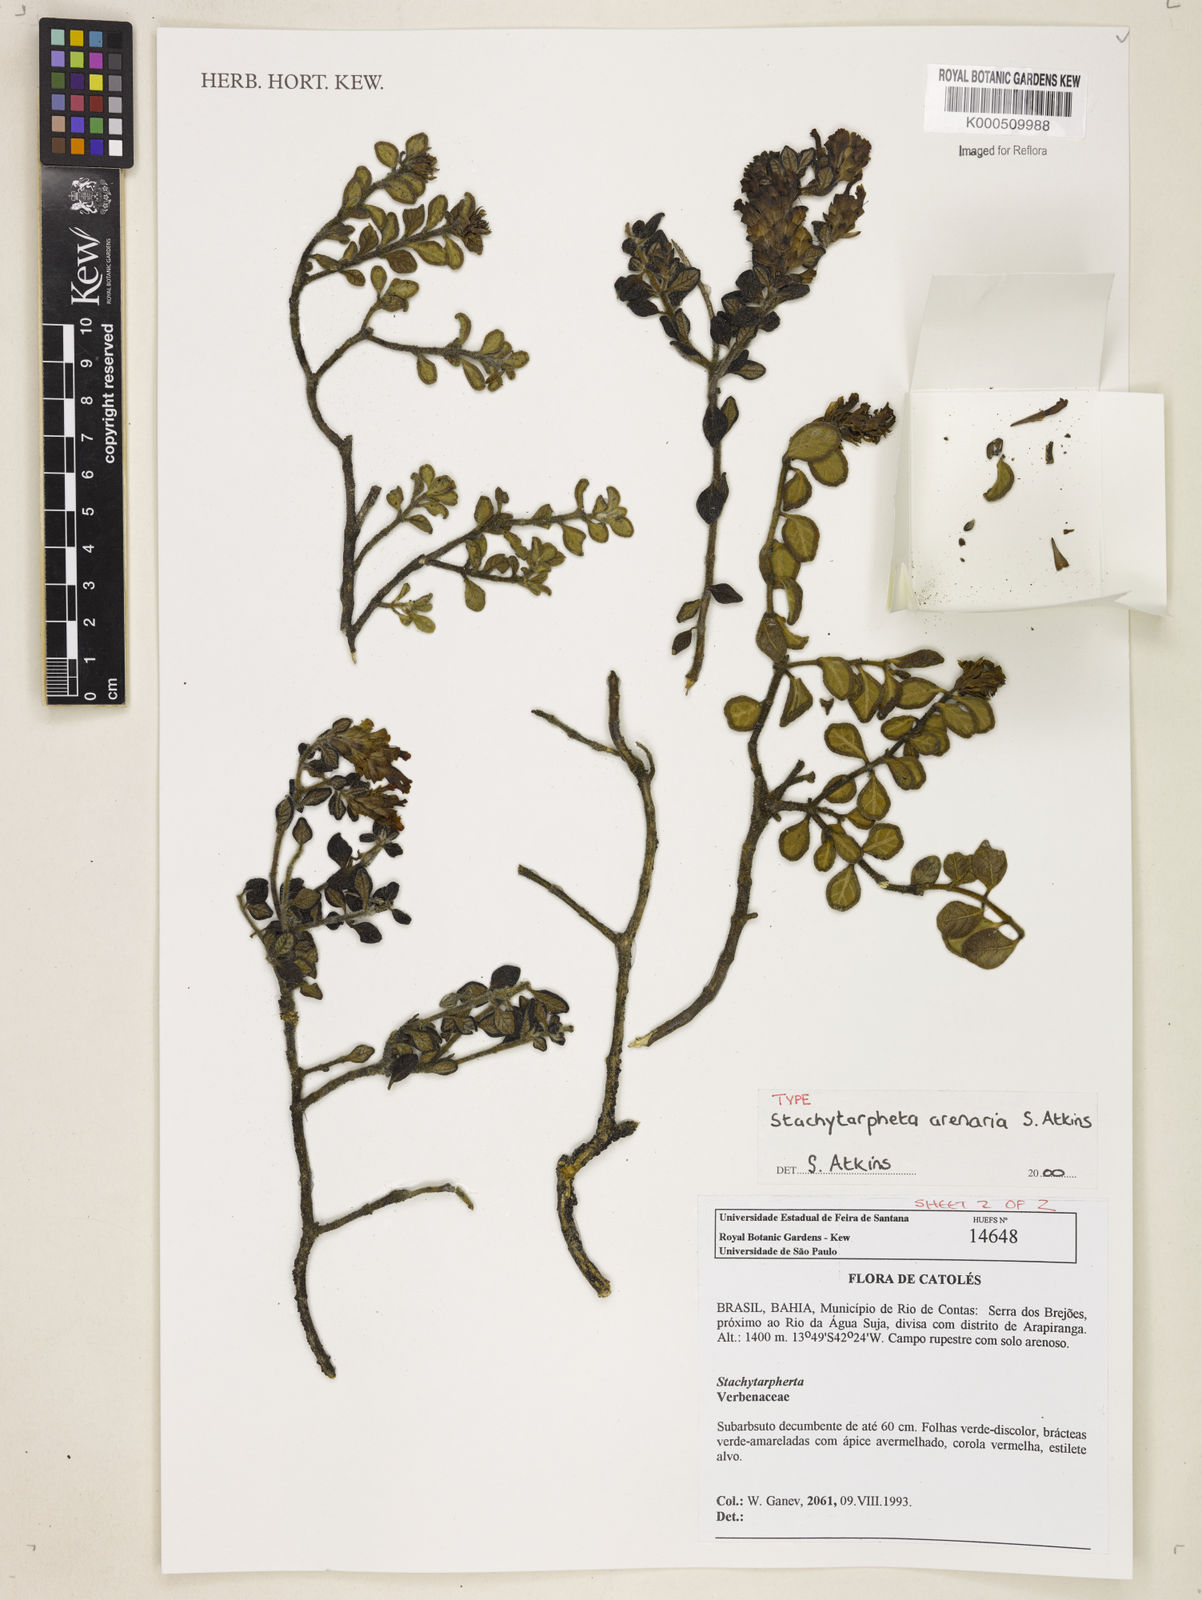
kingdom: Plantae
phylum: Tracheophyta
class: Magnoliopsida
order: Lamiales
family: Verbenaceae
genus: Stachytarpheta
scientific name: Stachytarpheta arenaria
